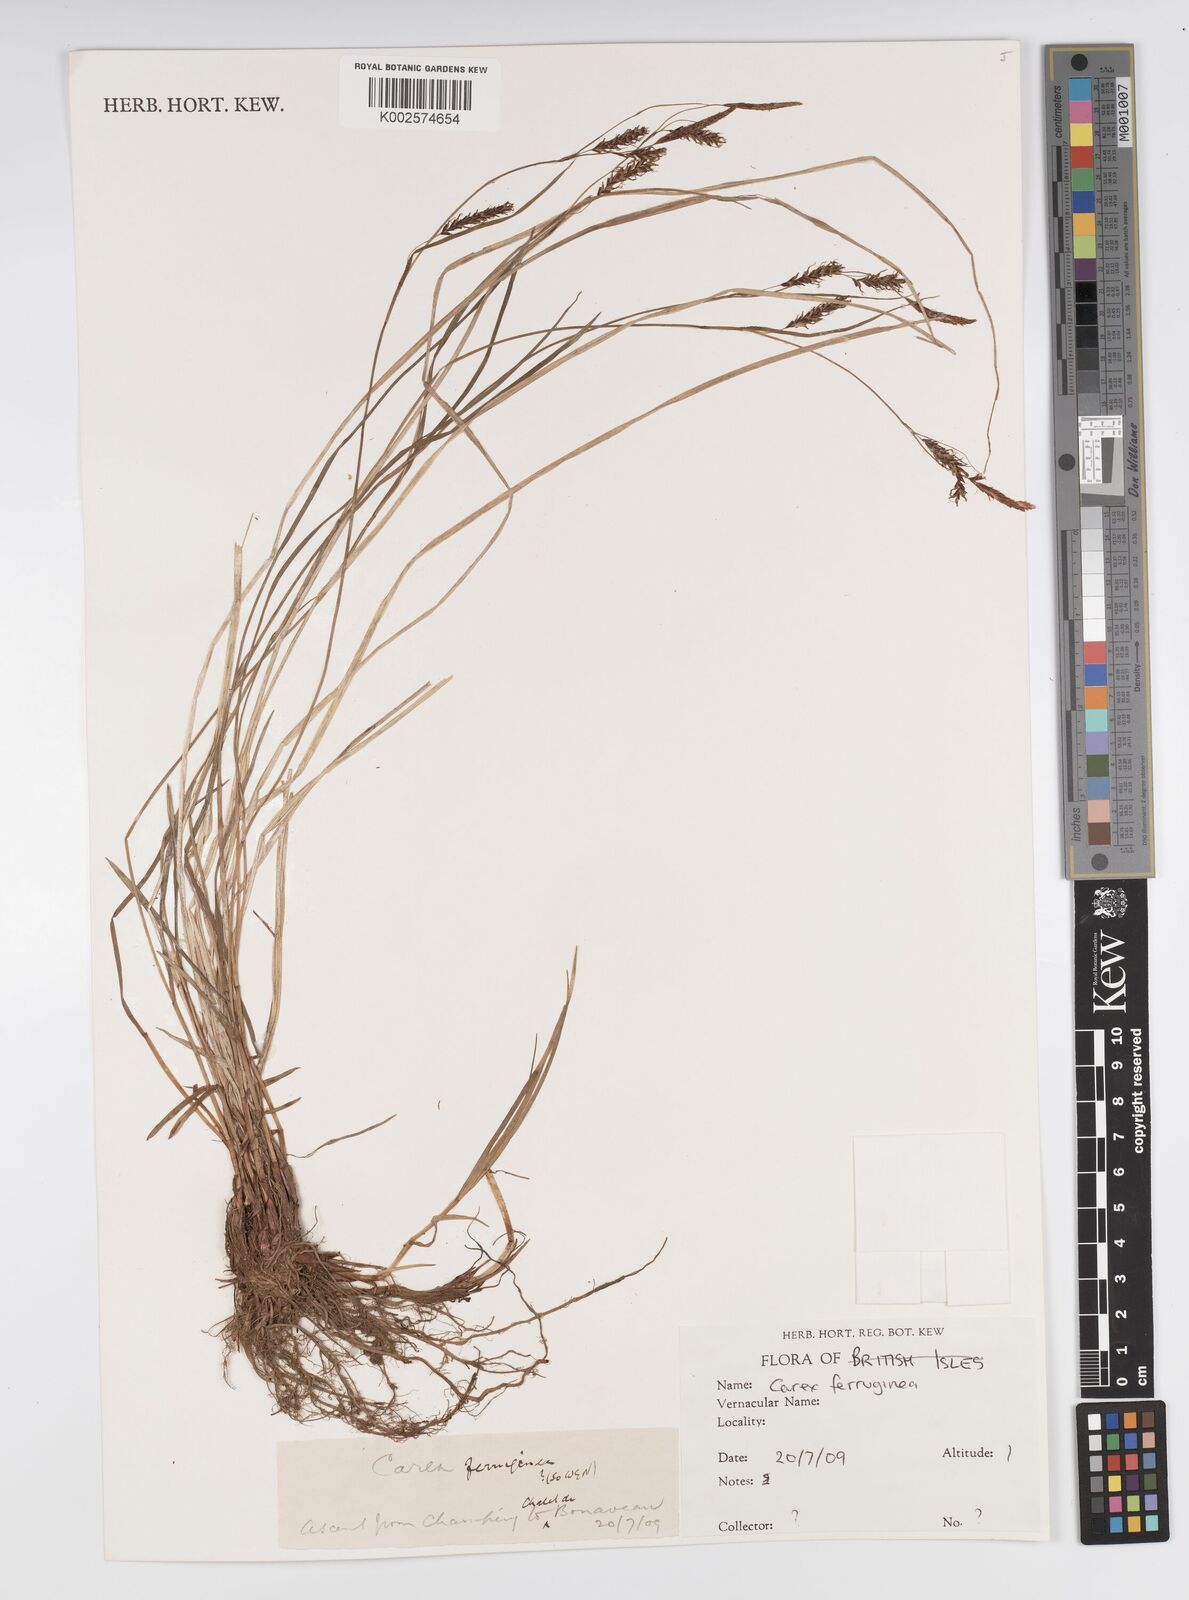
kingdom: Plantae
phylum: Tracheophyta
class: Liliopsida
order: Poales
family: Cyperaceae
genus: Carex
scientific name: Carex ferruginea
